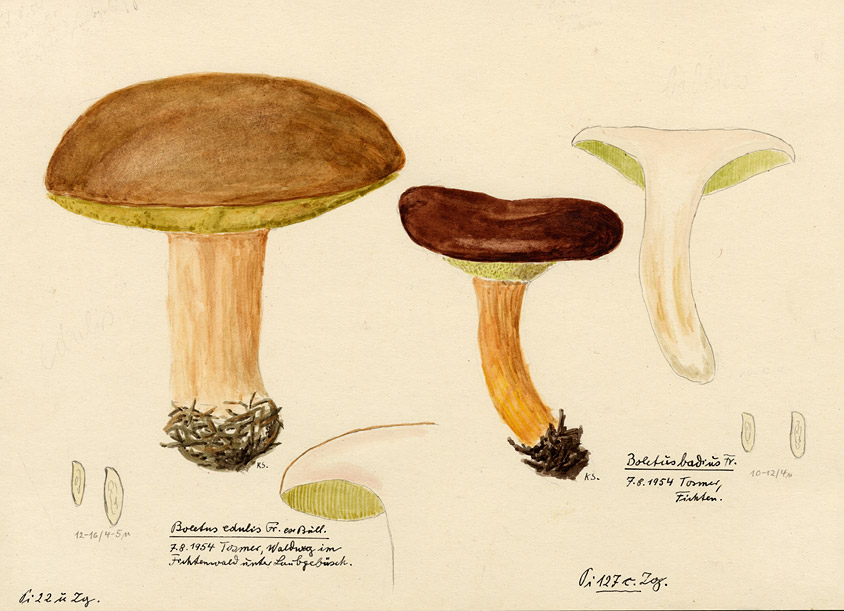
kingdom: Fungi
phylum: Basidiomycota
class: Agaricomycetes
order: Boletales
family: Boletaceae
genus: Imleria
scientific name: Imleria badia
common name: Bay bolete
